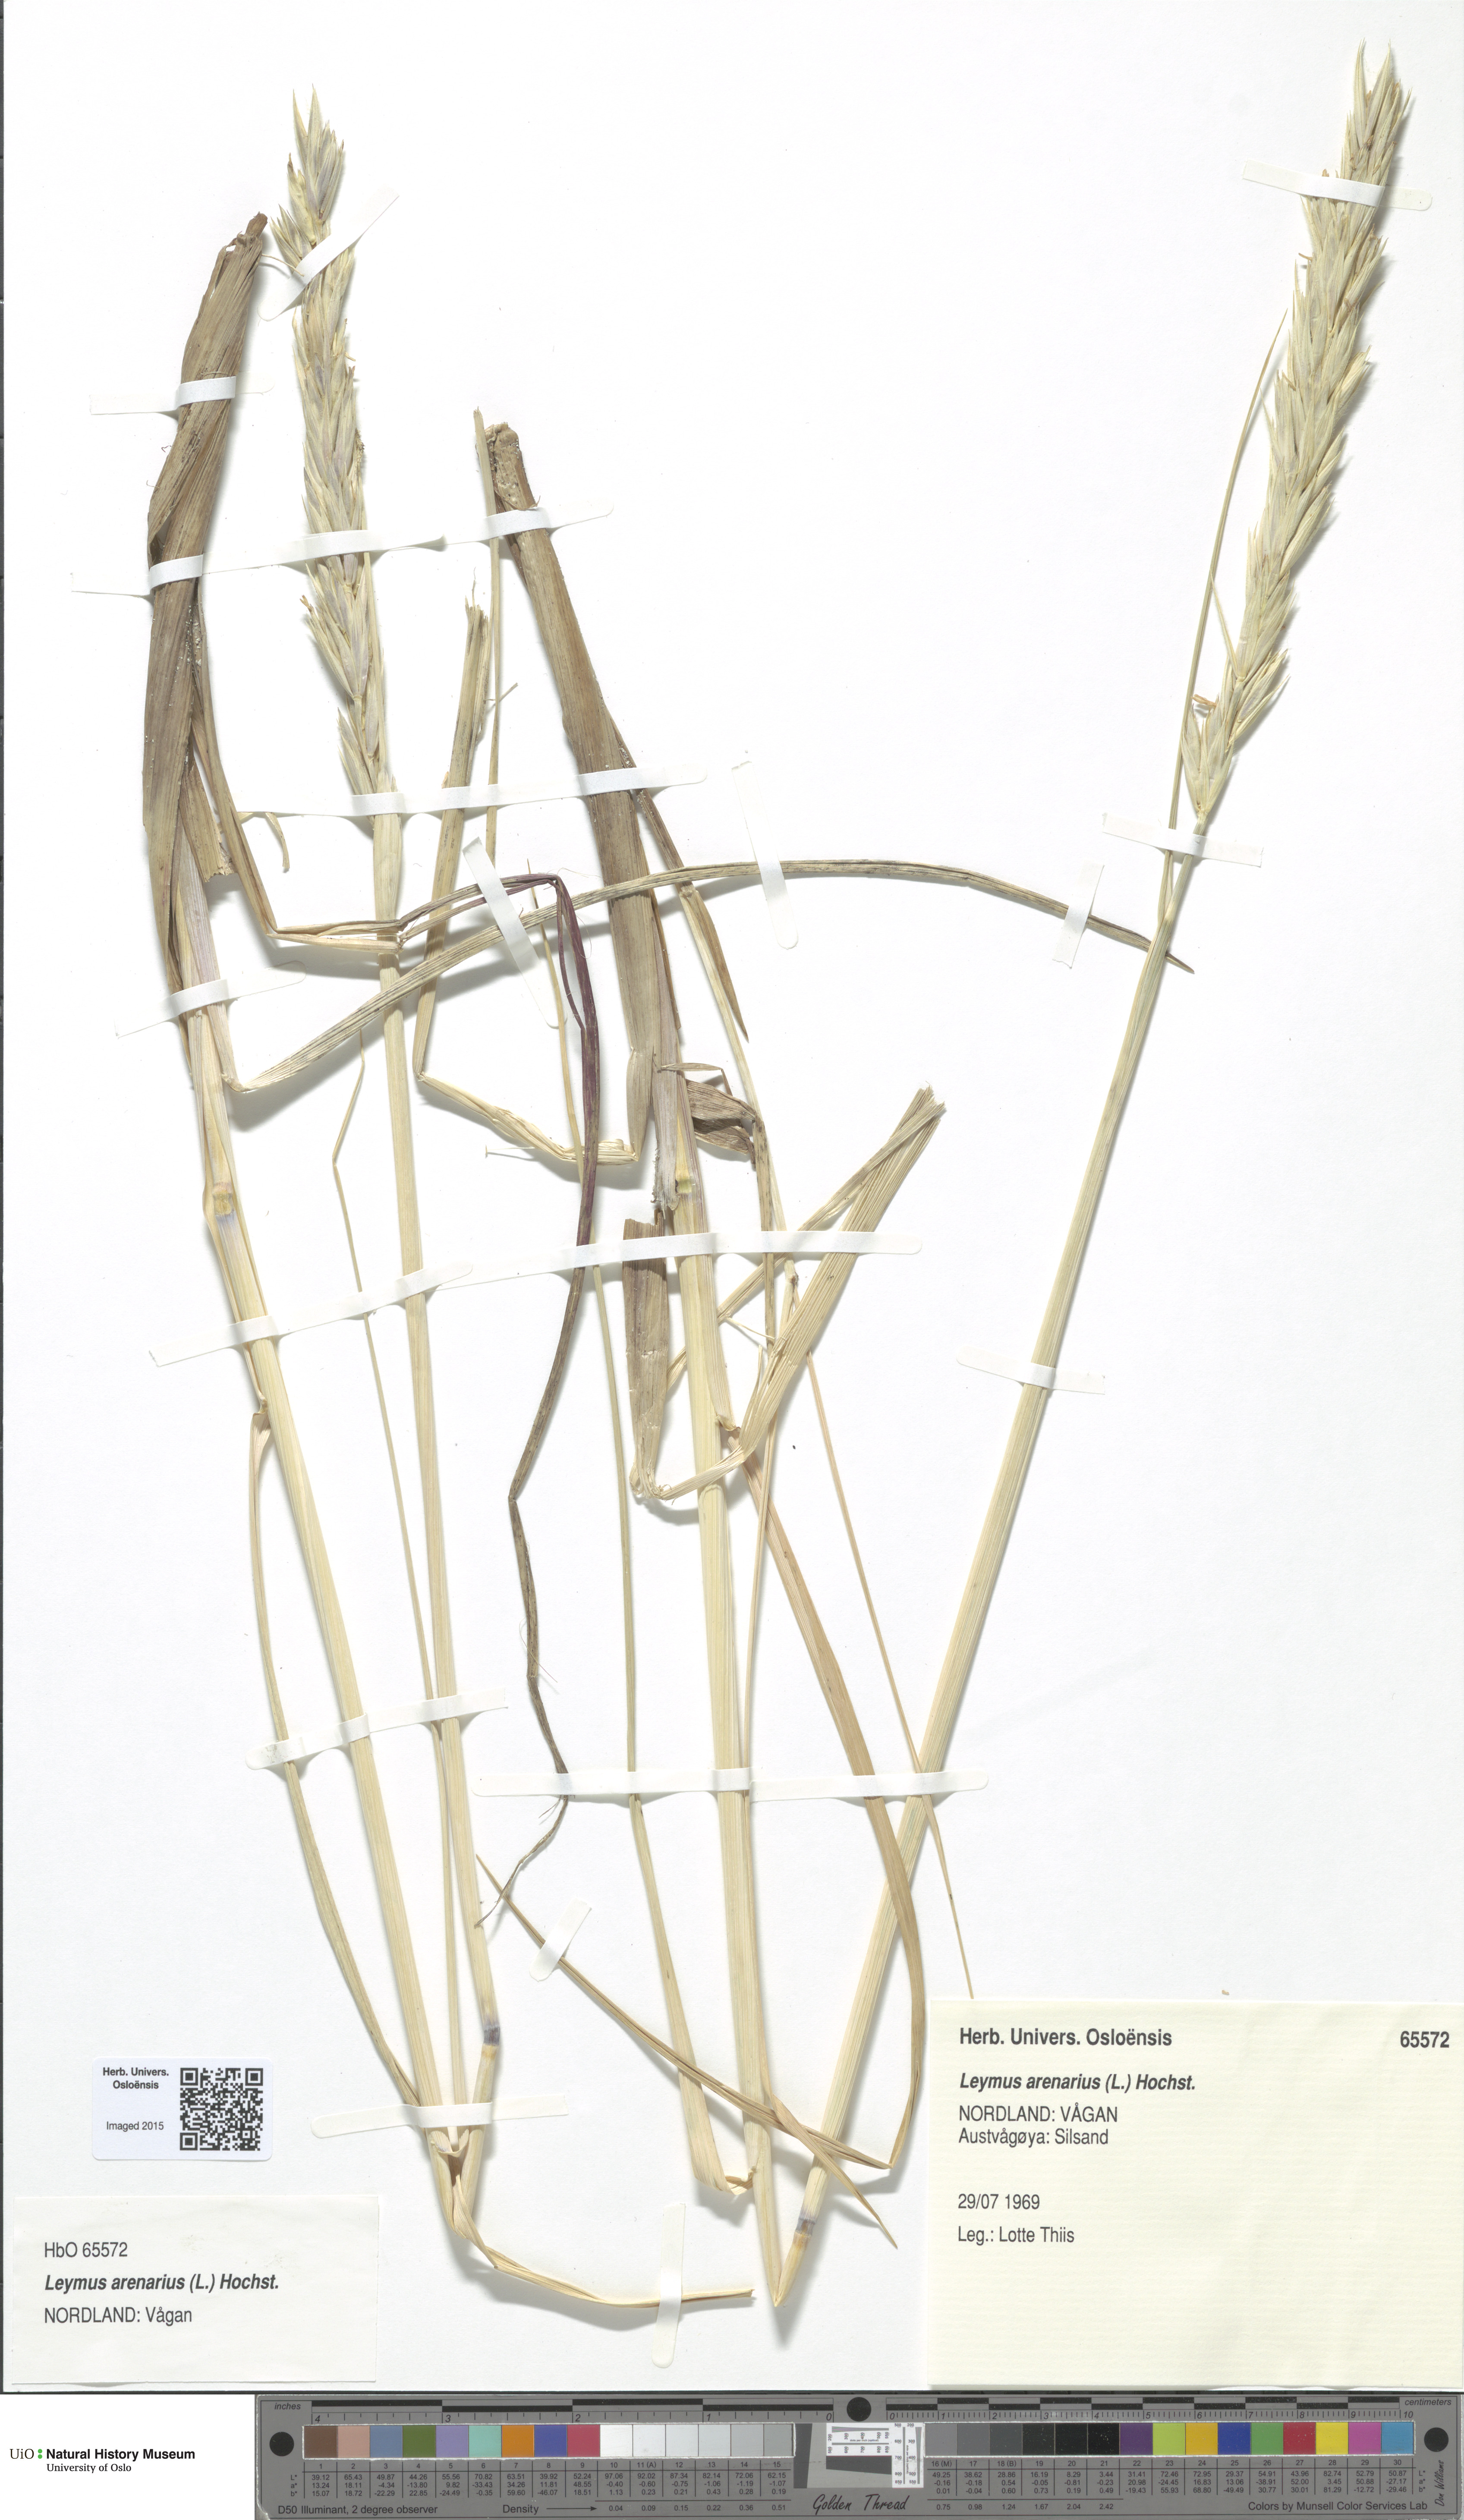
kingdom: Plantae
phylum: Tracheophyta
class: Liliopsida
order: Poales
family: Poaceae
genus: Leymus
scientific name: Leymus arenarius
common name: Lyme-grass
